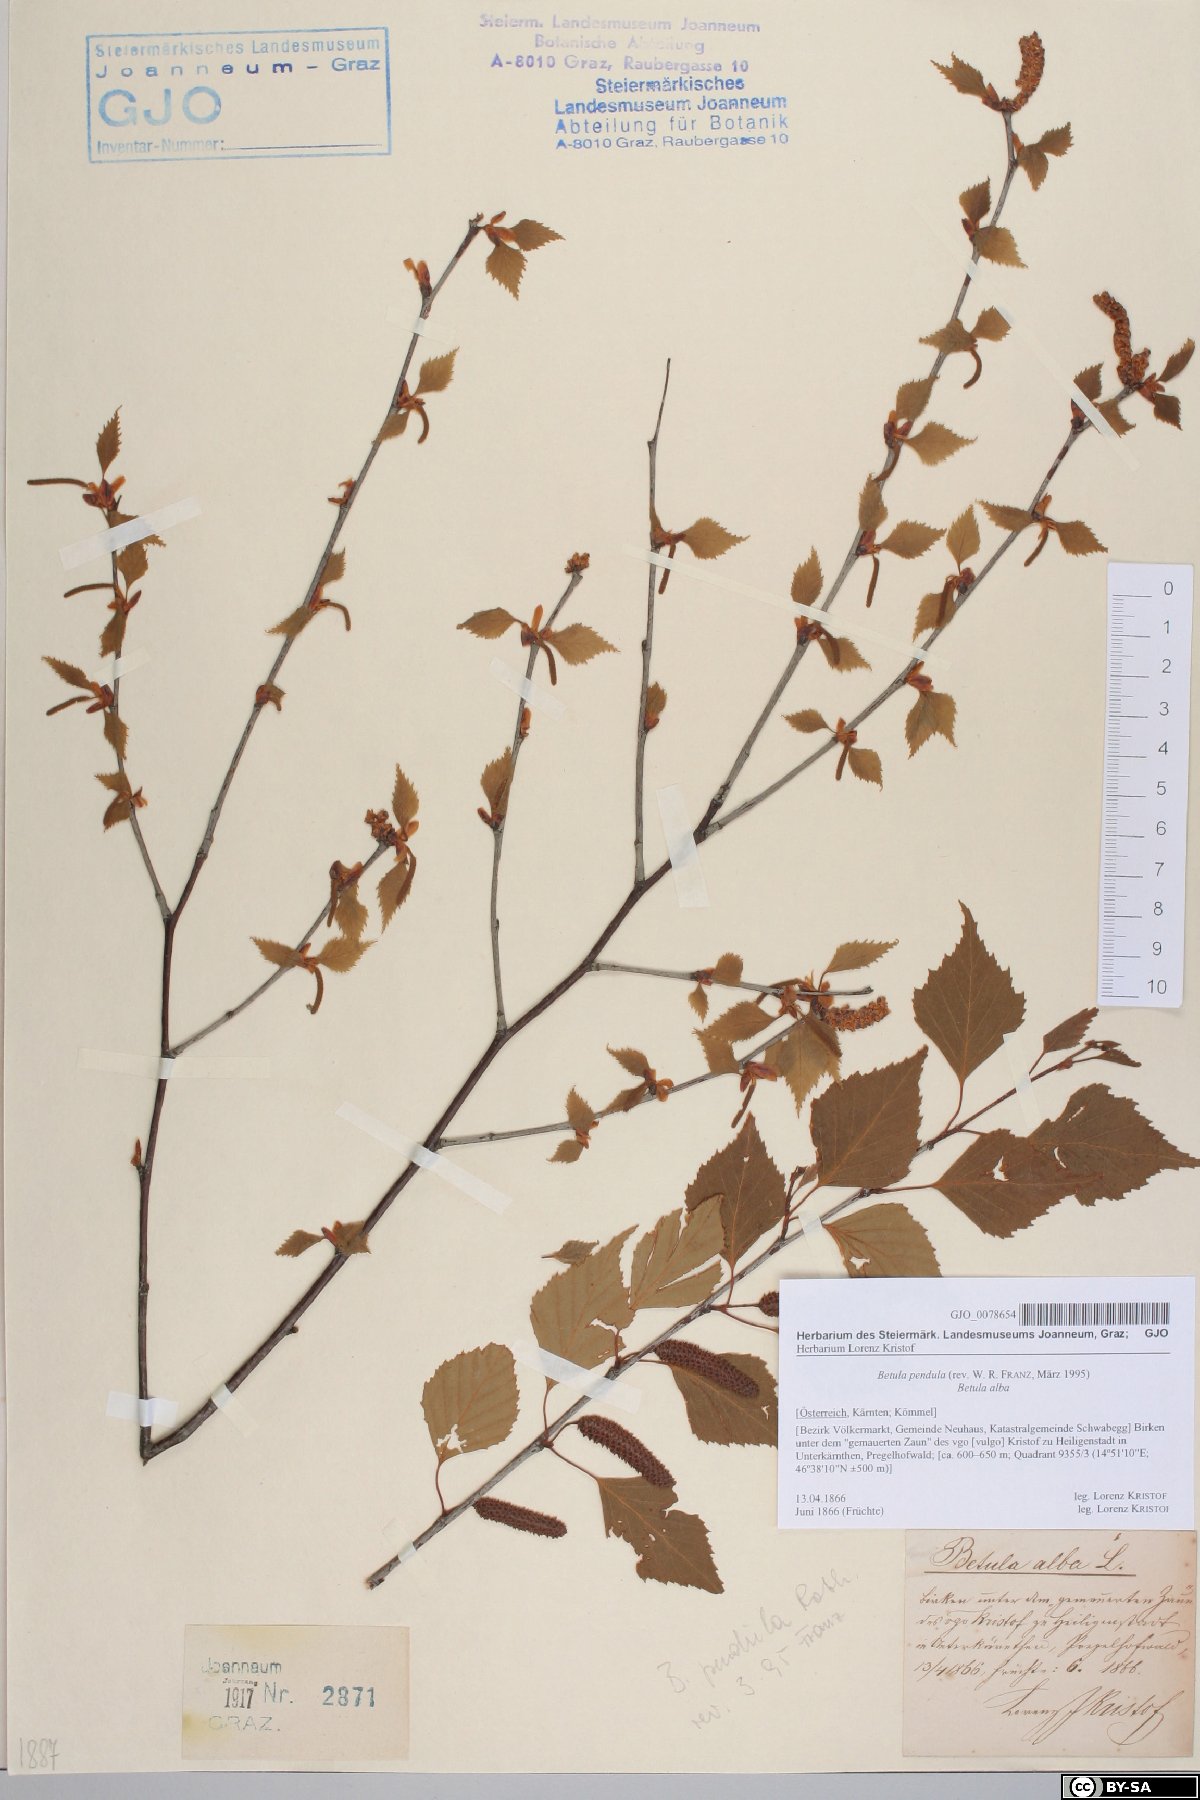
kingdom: Plantae
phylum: Tracheophyta
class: Magnoliopsida
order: Fagales
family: Betulaceae
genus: Betula
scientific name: Betula pendula
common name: Silver birch
